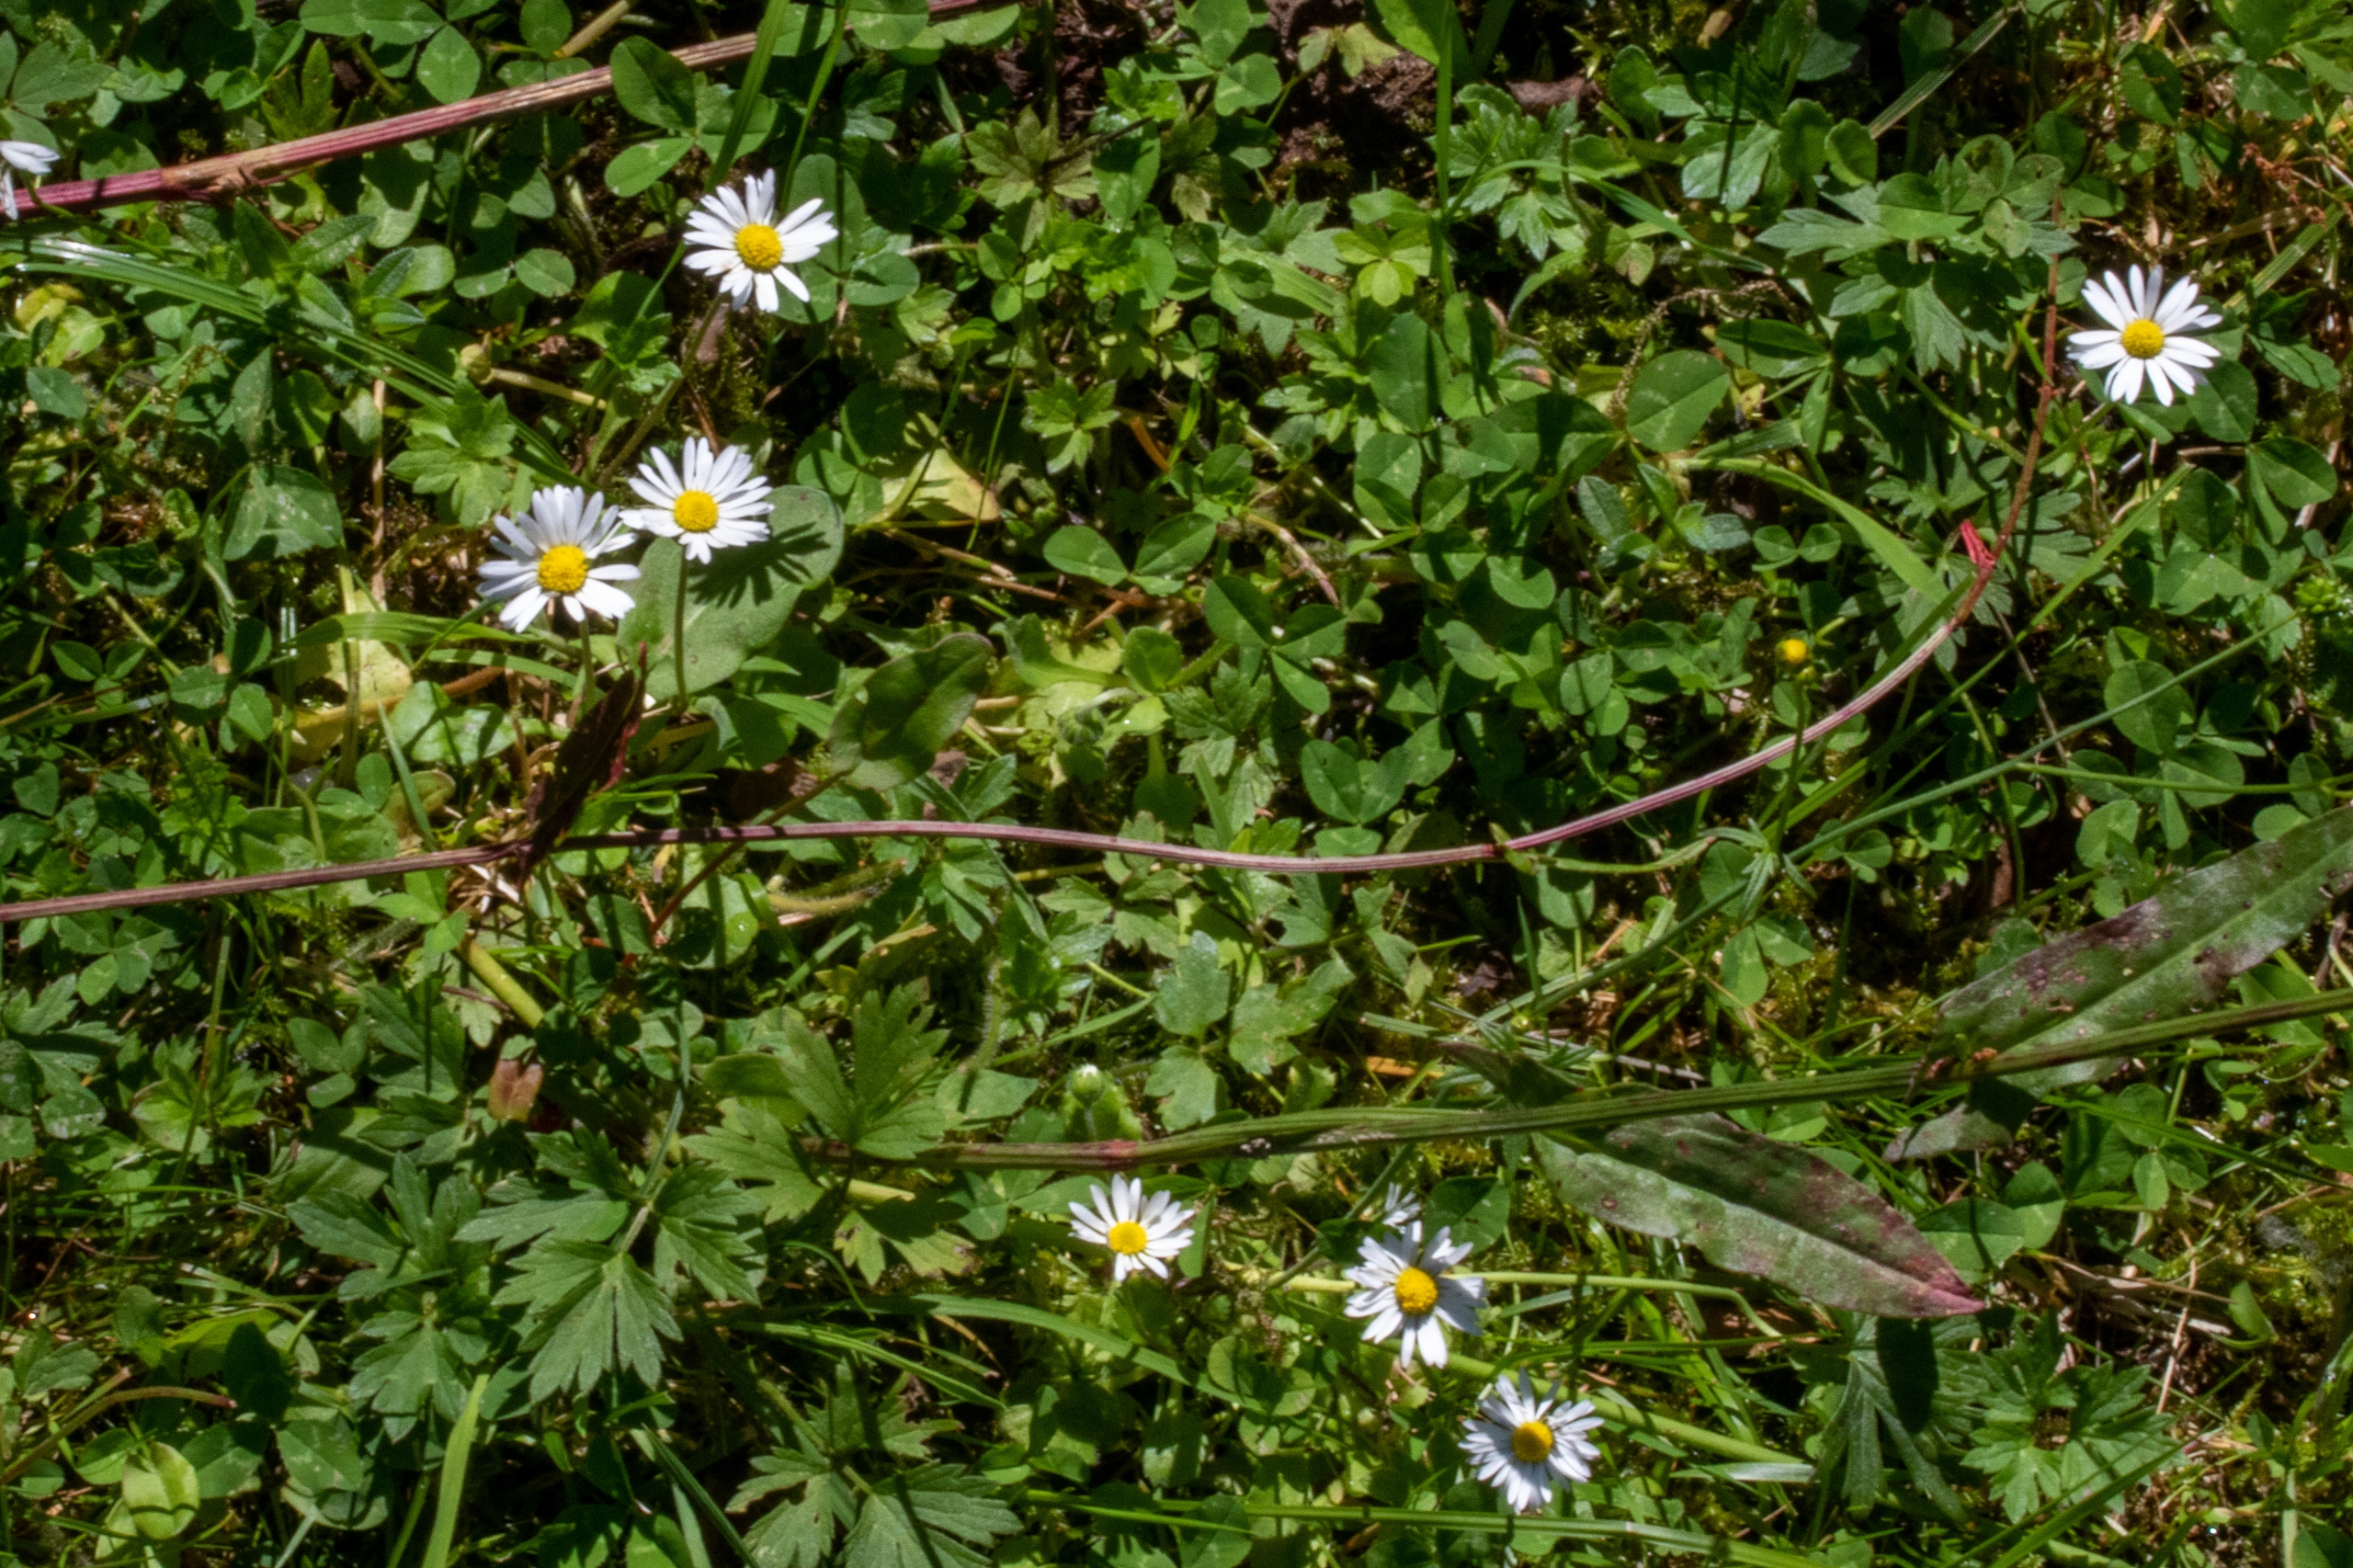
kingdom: Plantae
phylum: Tracheophyta
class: Magnoliopsida
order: Asterales
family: Asteraceae
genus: Bellis
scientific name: Bellis perennis
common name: Tusindfryd
